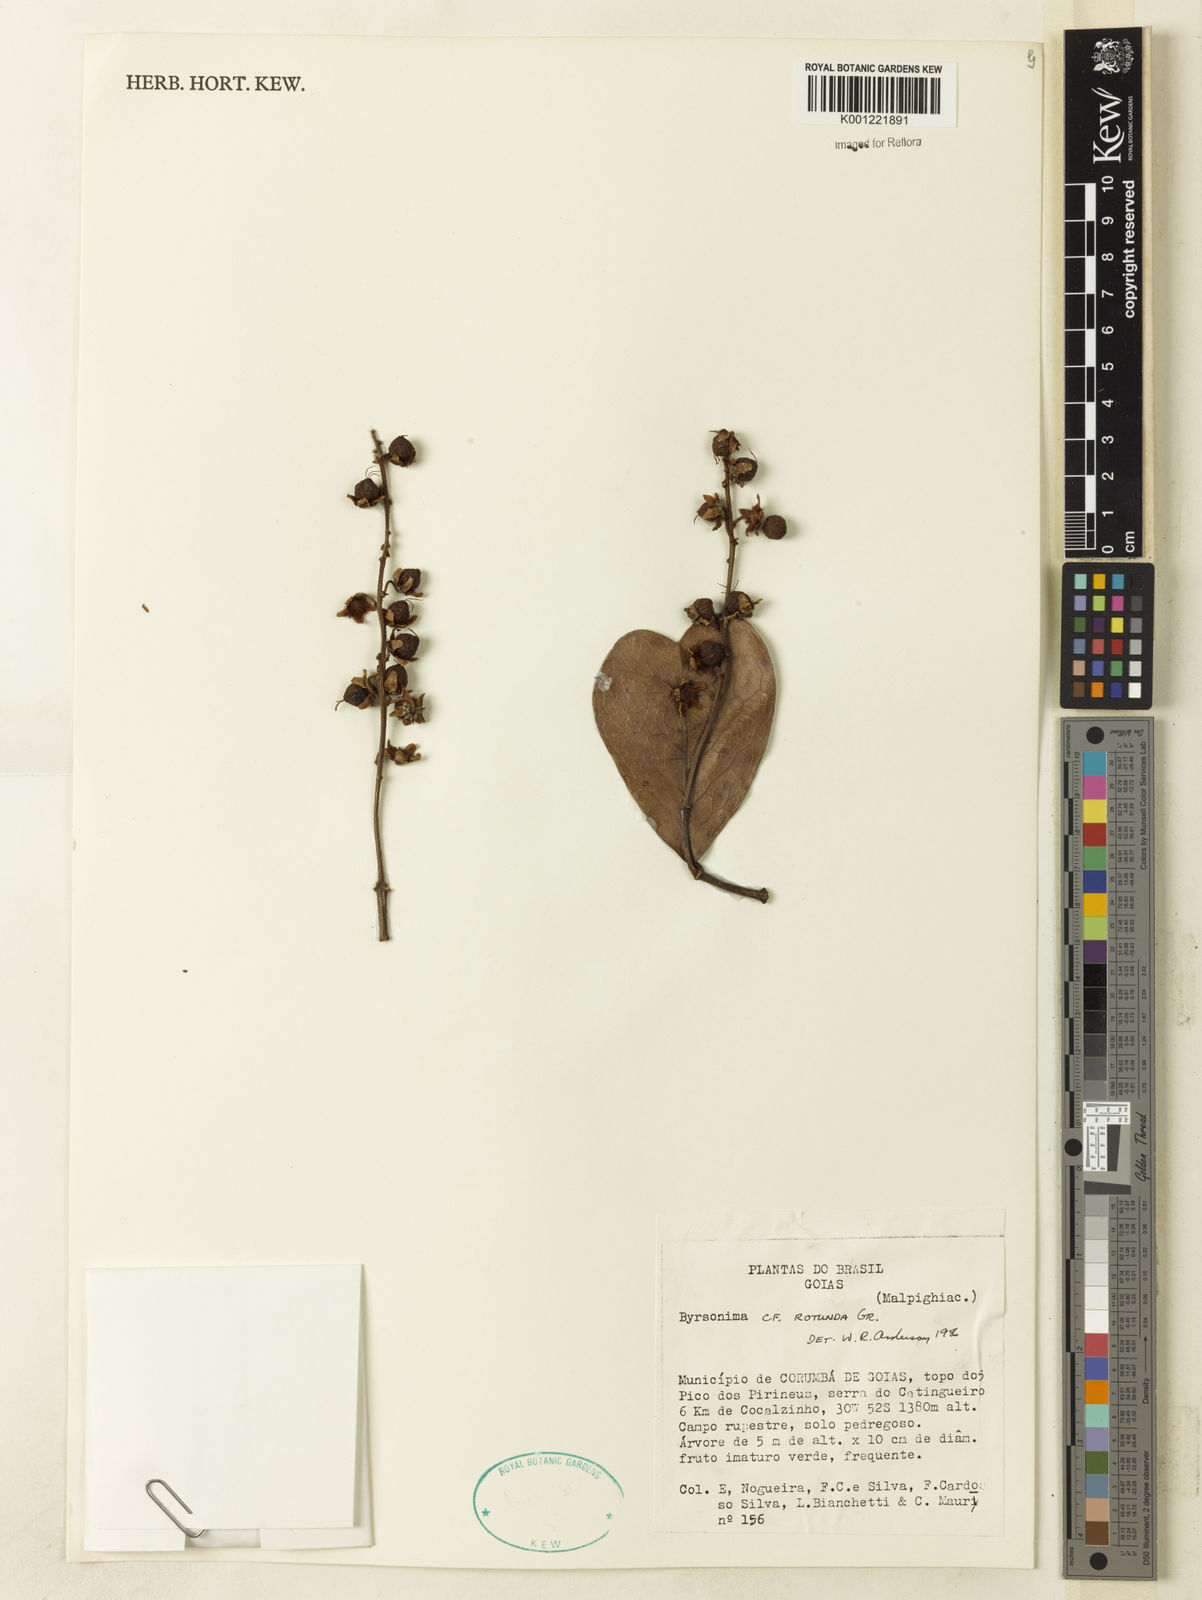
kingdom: Plantae
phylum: Tracheophyta
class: Magnoliopsida
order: Malpighiales
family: Malpighiaceae
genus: Byrsonima
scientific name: Byrsonima rotunda
